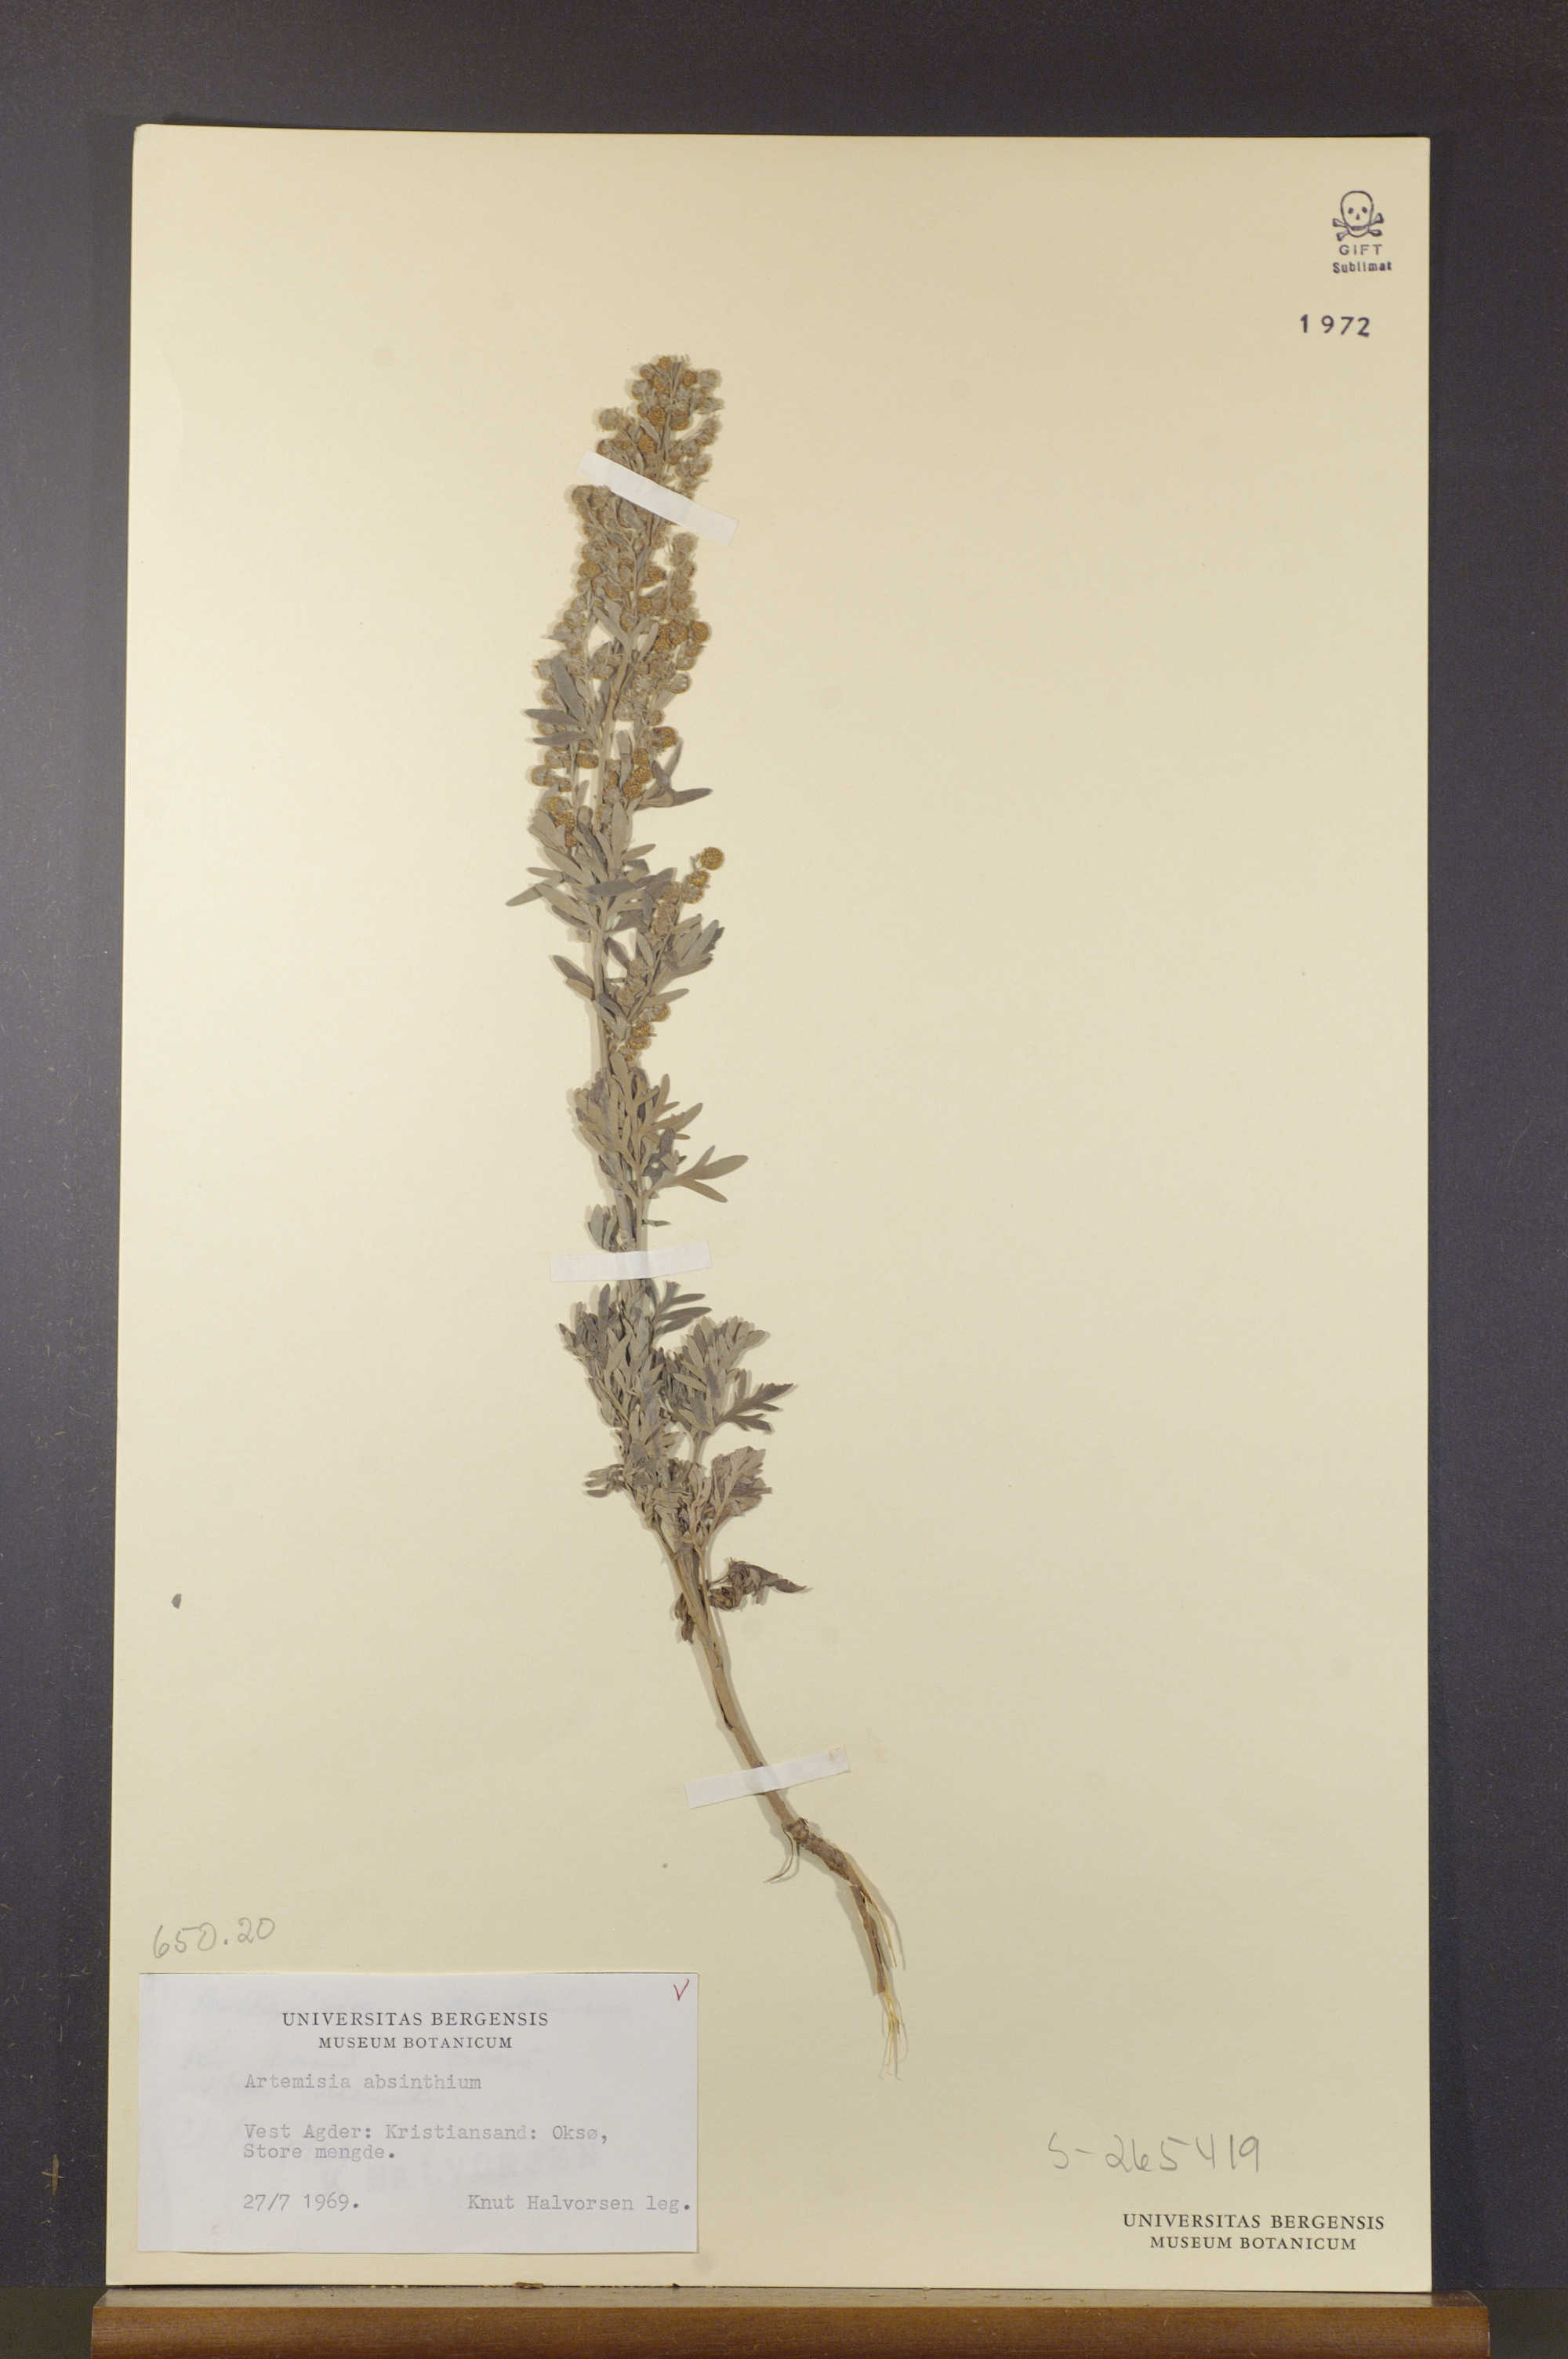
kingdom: Plantae
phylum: Tracheophyta
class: Magnoliopsida
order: Asterales
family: Asteraceae
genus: Artemisia
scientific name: Artemisia absinthium
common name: Wormwood
